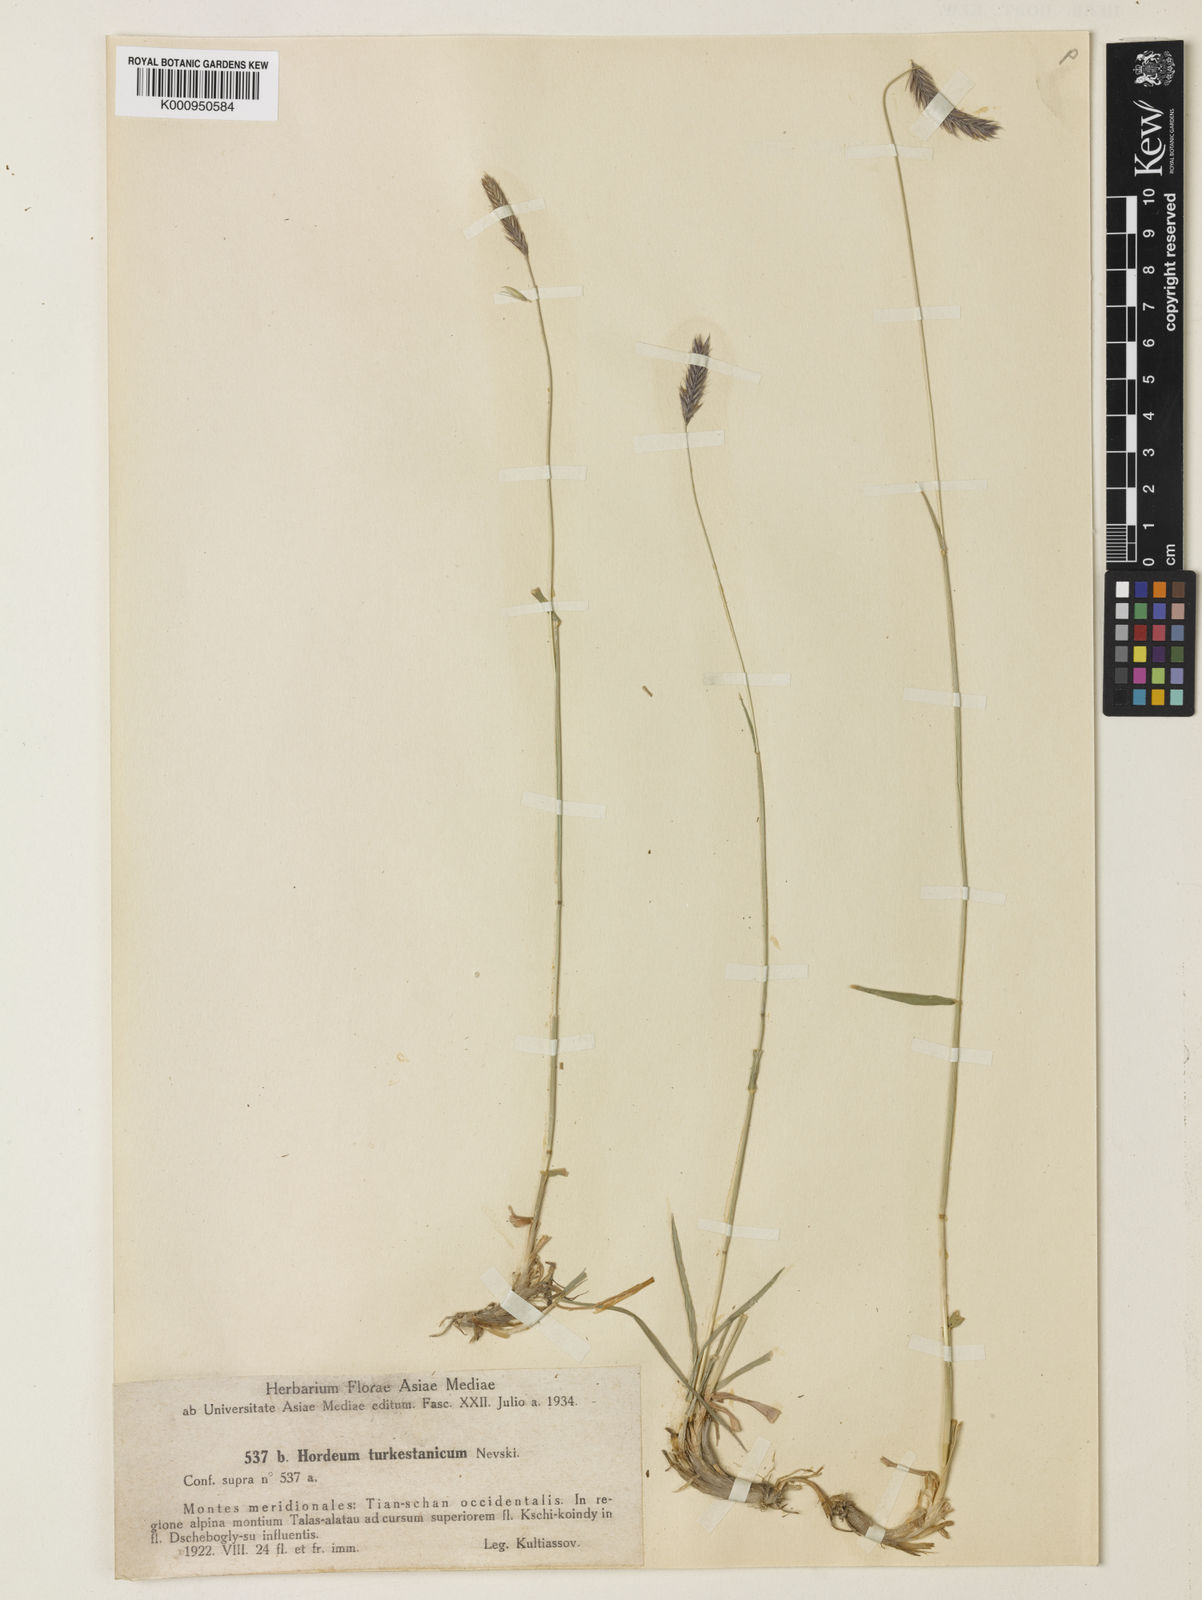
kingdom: Plantae
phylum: Tracheophyta
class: Liliopsida
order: Poales
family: Poaceae
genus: Hordeum
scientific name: Hordeum brevisubulatum
